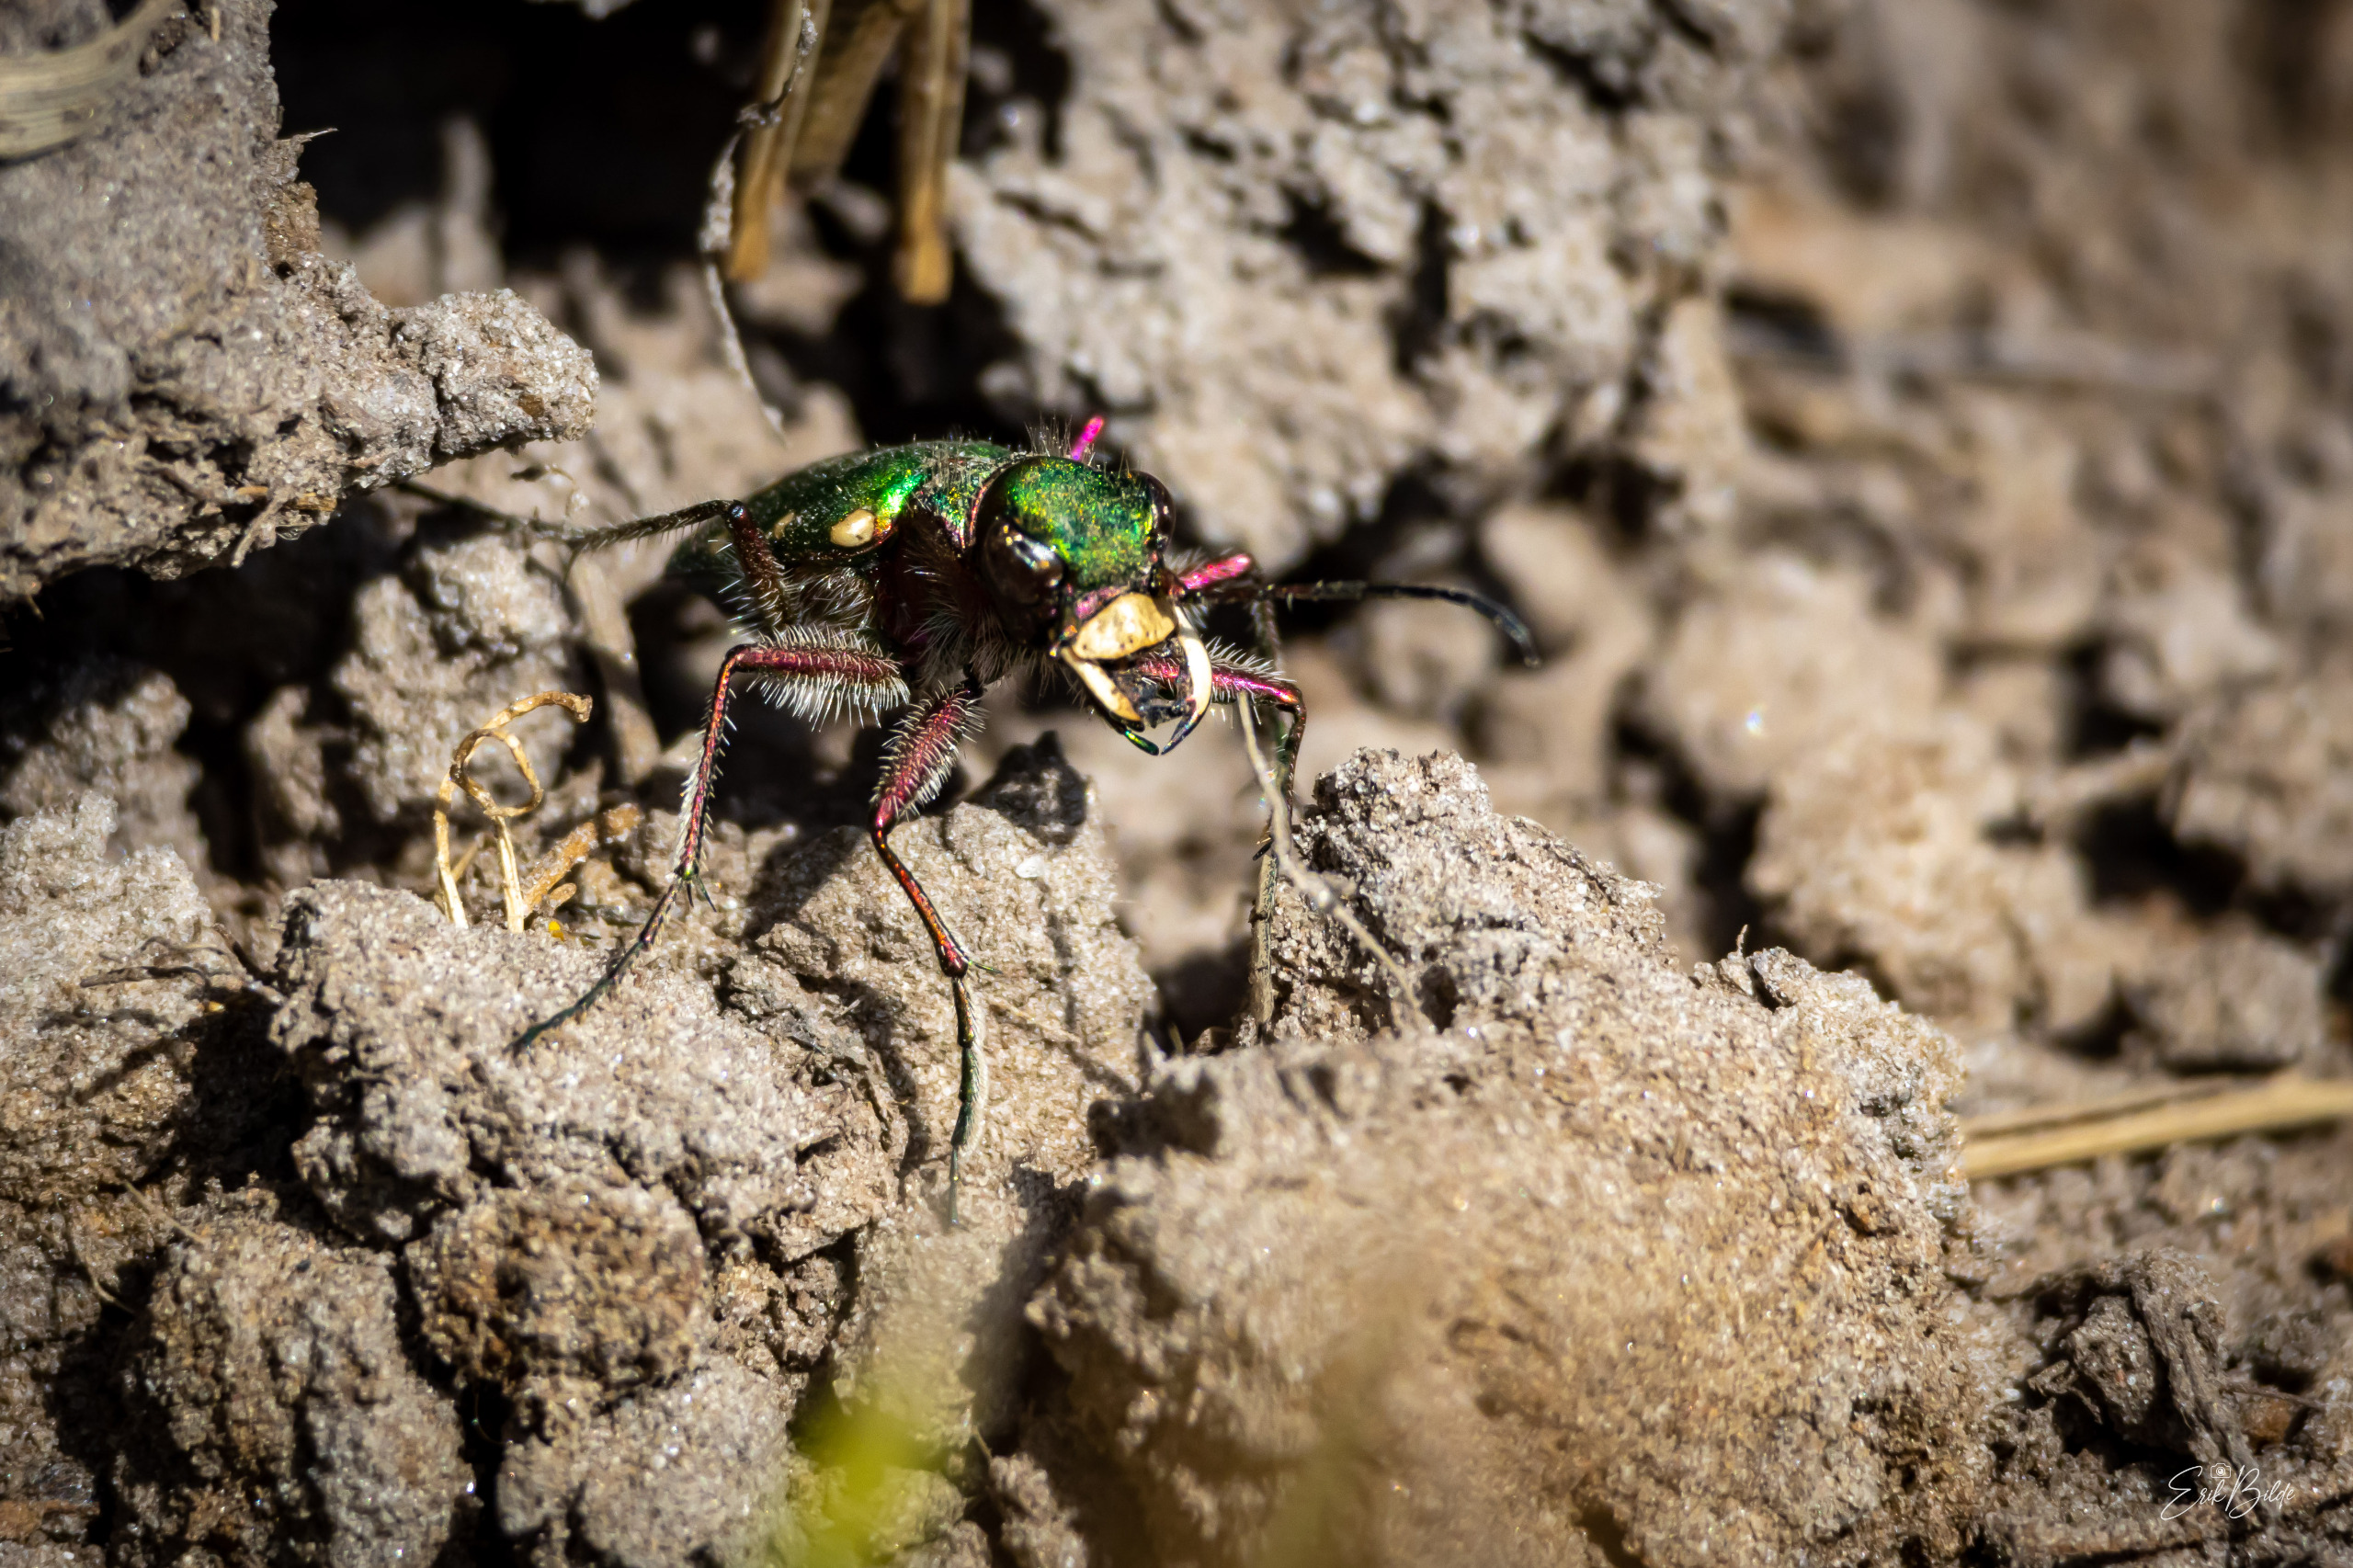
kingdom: Animalia
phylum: Arthropoda
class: Insecta
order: Coleoptera
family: Carabidae
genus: Cicindela
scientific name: Cicindela campestris
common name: Grøn sandspringer
